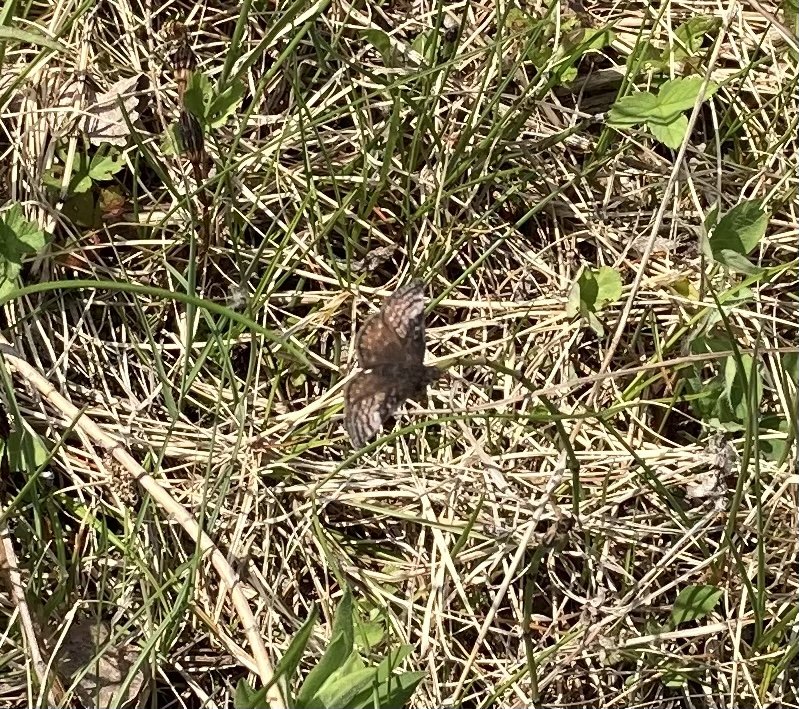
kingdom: Animalia
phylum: Arthropoda
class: Insecta
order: Lepidoptera
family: Hesperiidae
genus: Erynnis
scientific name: Erynnis icelus
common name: Dreamy Duskywing
